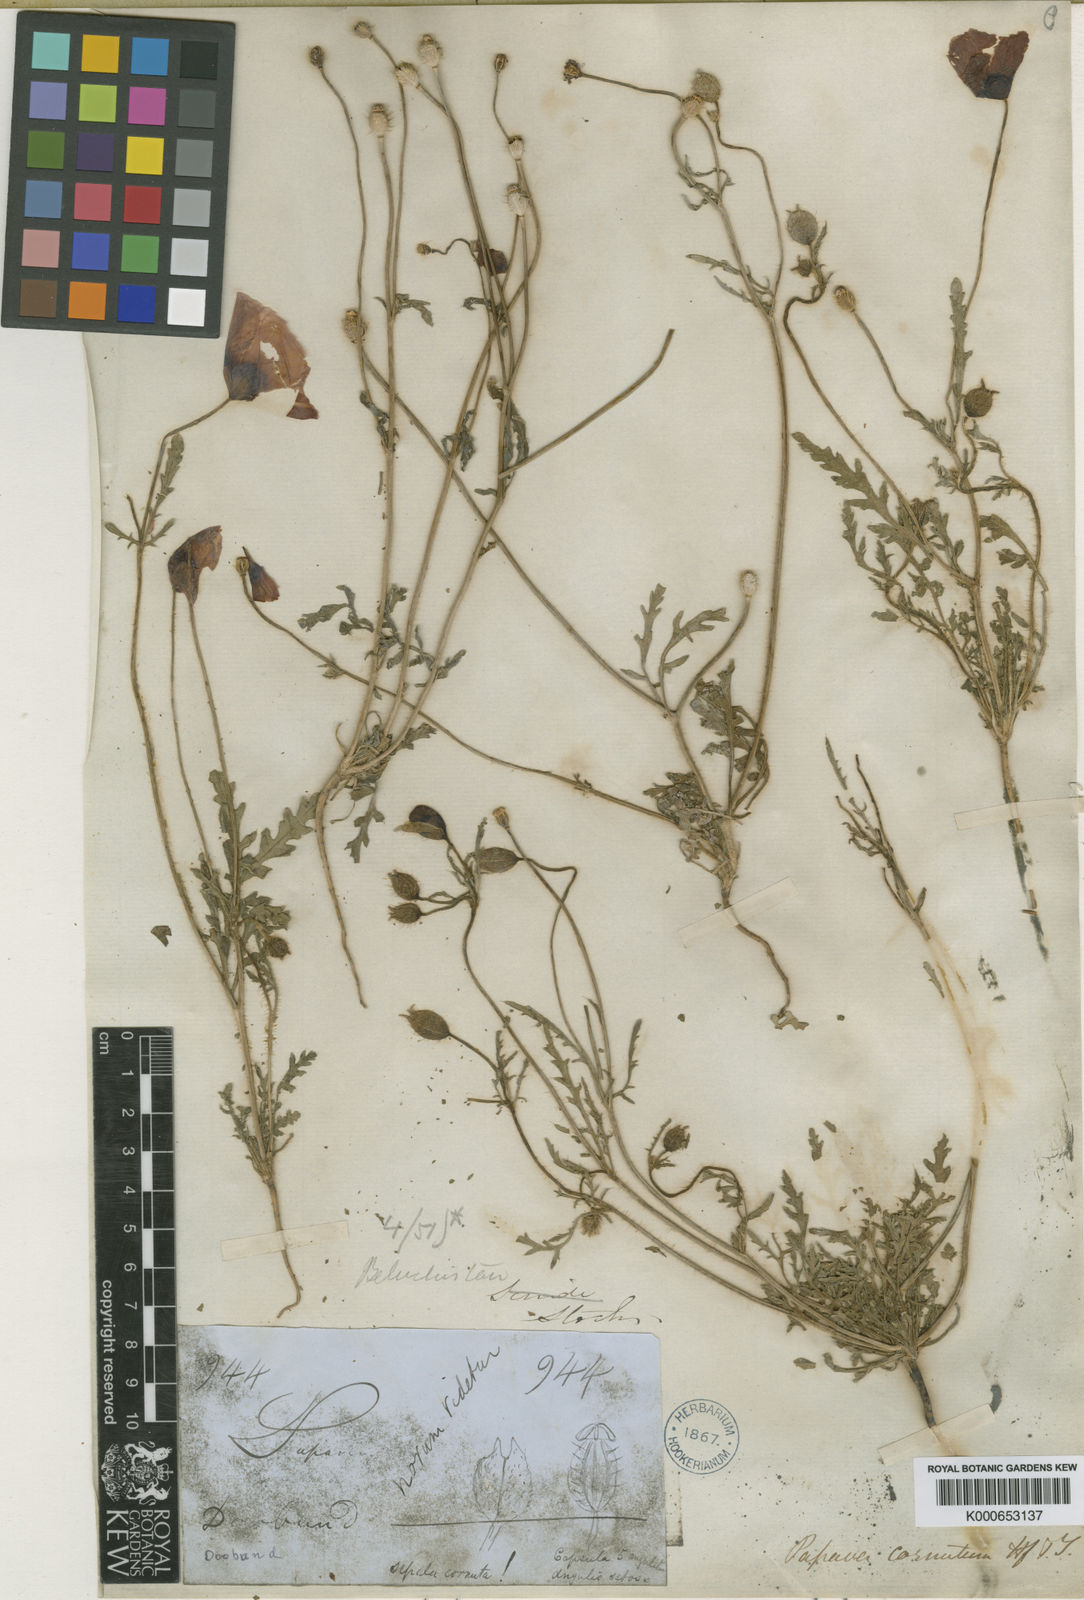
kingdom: Plantae
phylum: Tracheophyta
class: Magnoliopsida
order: Ranunculales
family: Papaveraceae
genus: Papaver
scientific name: Papaver pavoninum
